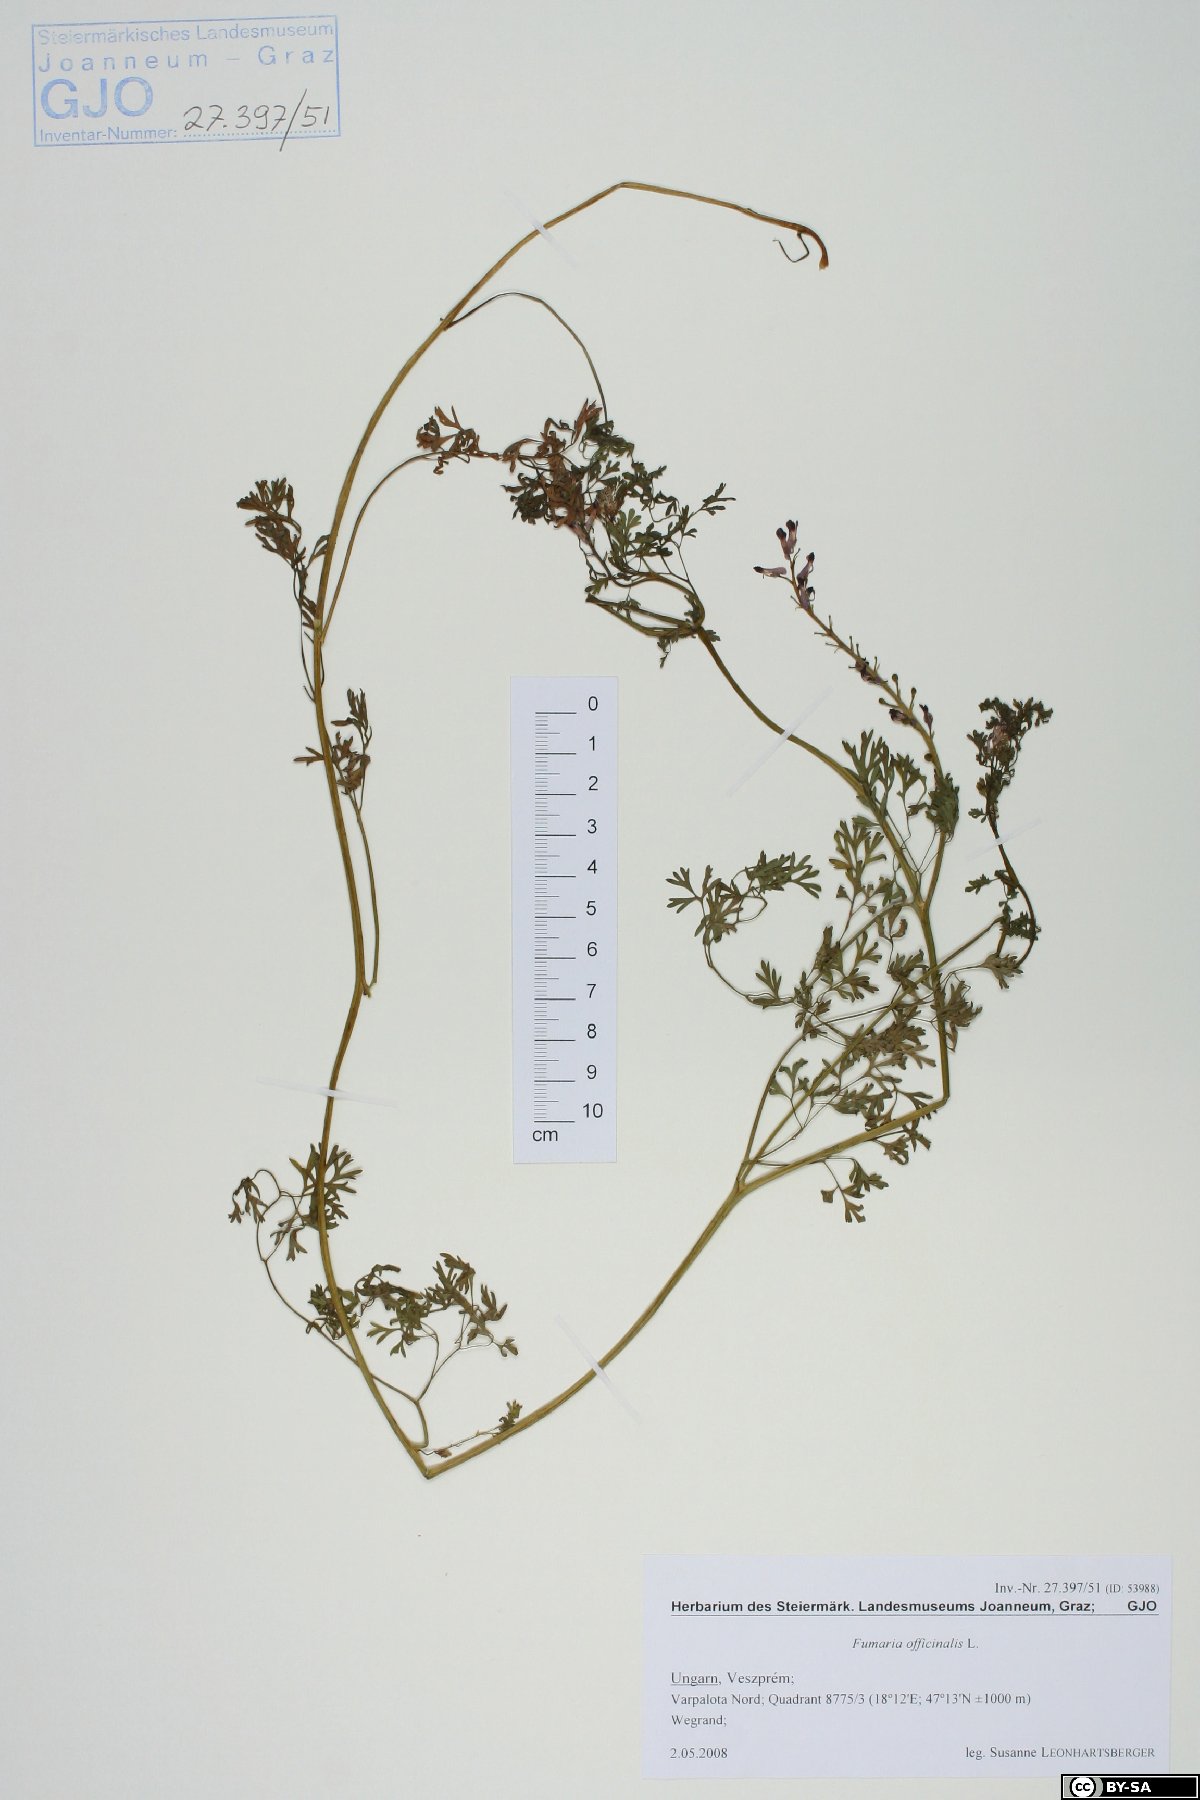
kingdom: Plantae
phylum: Tracheophyta
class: Magnoliopsida
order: Ranunculales
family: Papaveraceae
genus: Fumaria
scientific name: Fumaria officinalis
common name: Common fumitory
